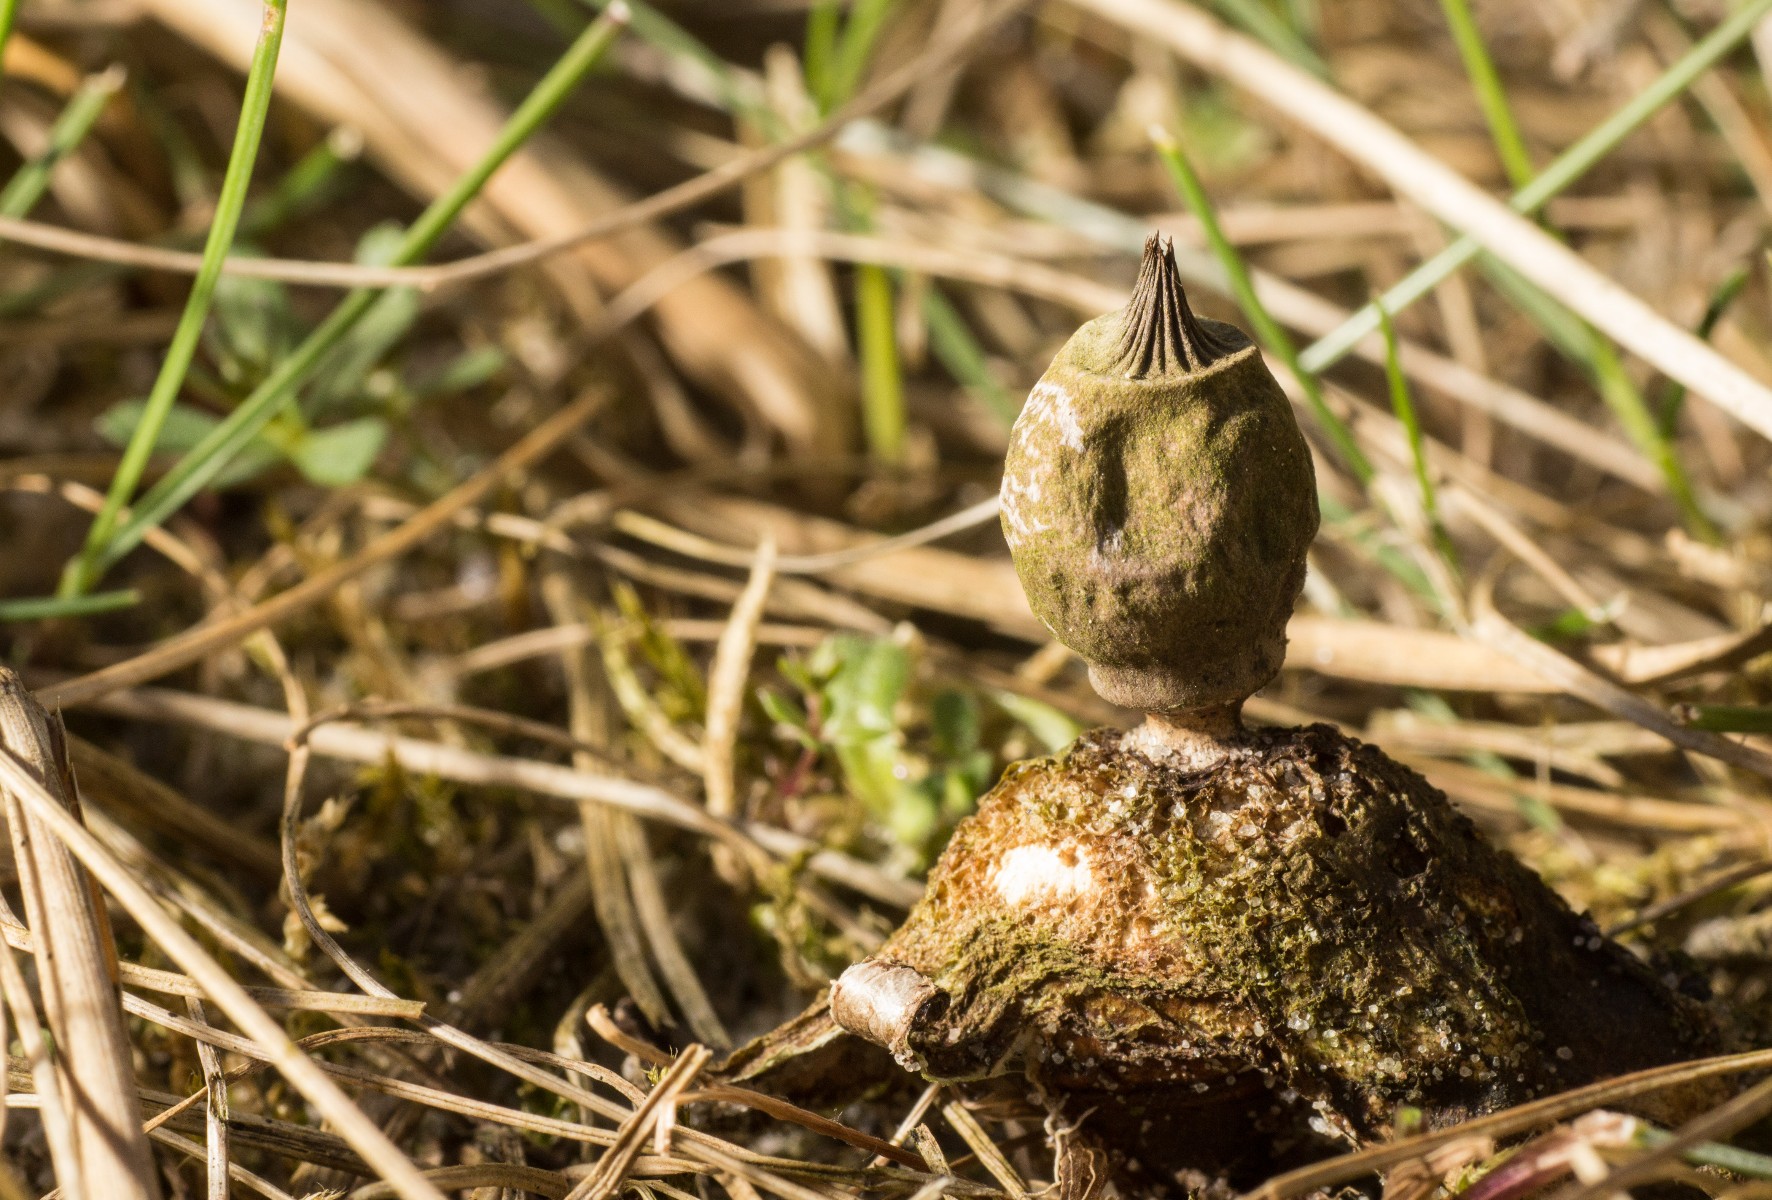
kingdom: Fungi
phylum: Basidiomycota
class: Agaricomycetes
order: Geastrales
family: Geastraceae
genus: Geastrum
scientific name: Geastrum striatum
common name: dværg-stjernebold
